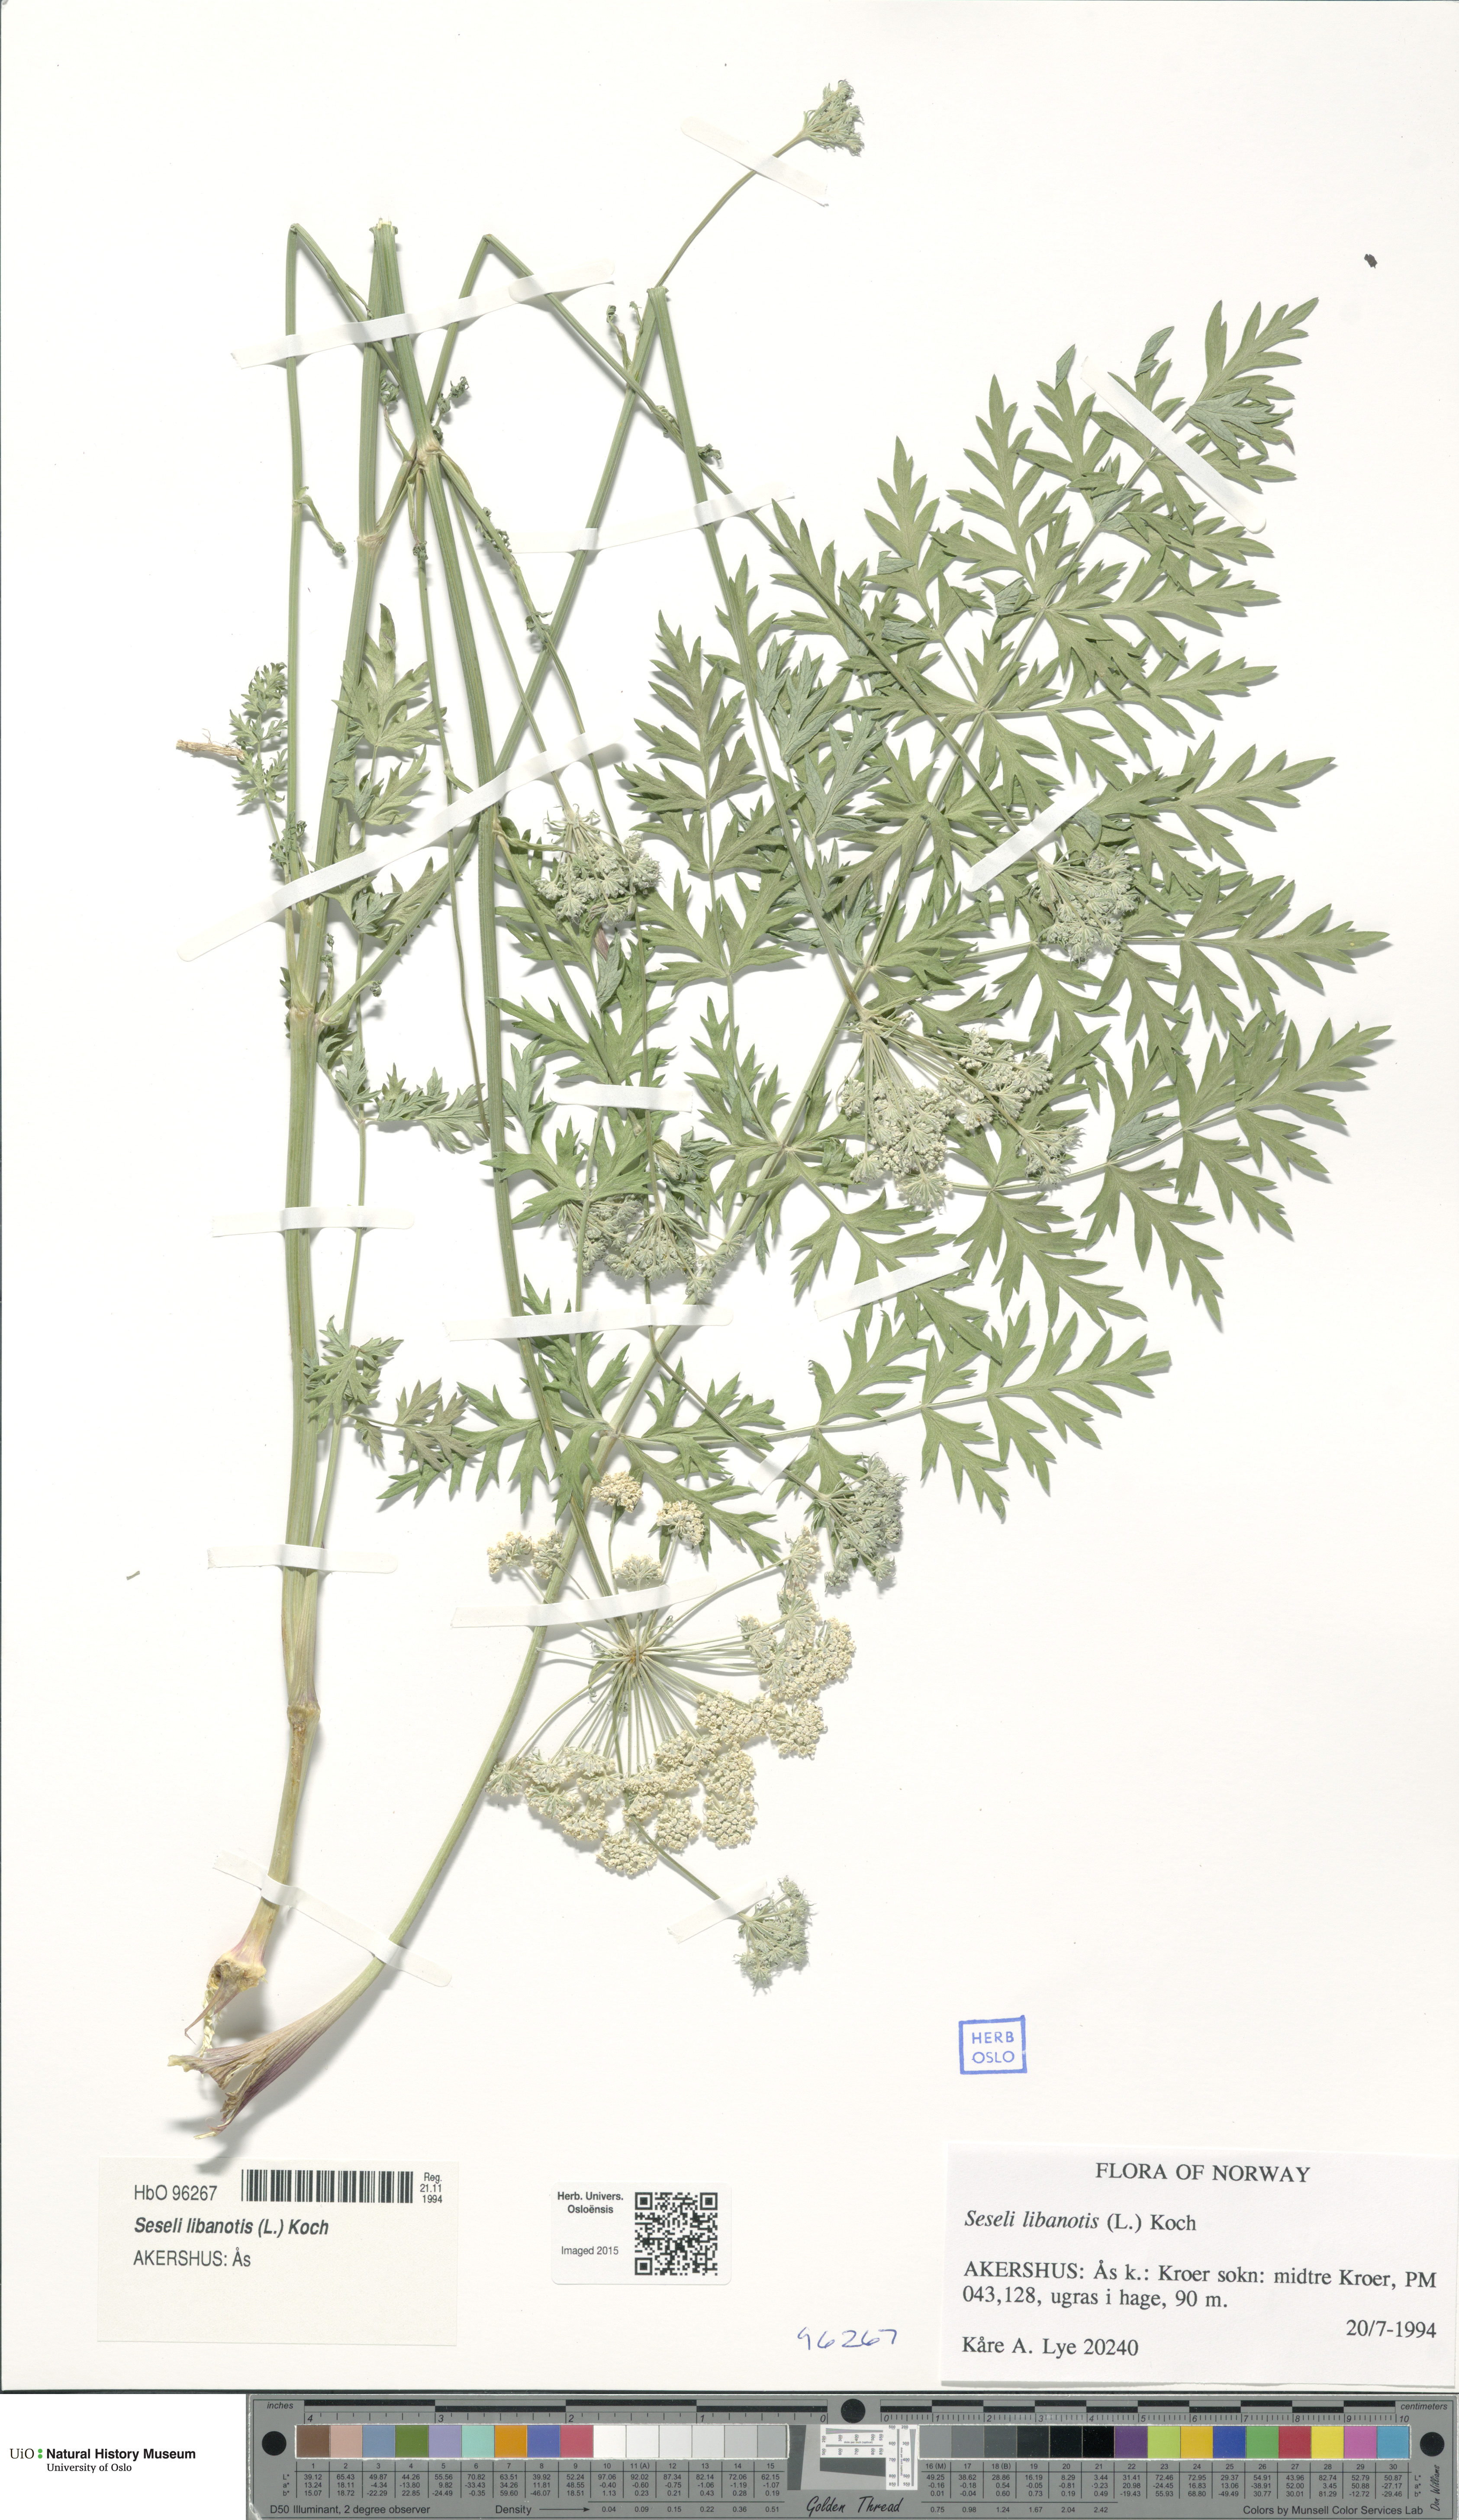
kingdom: Plantae
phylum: Tracheophyta
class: Magnoliopsida
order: Apiales
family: Apiaceae
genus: Seseli
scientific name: Seseli libanotis
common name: Mooncarrot
